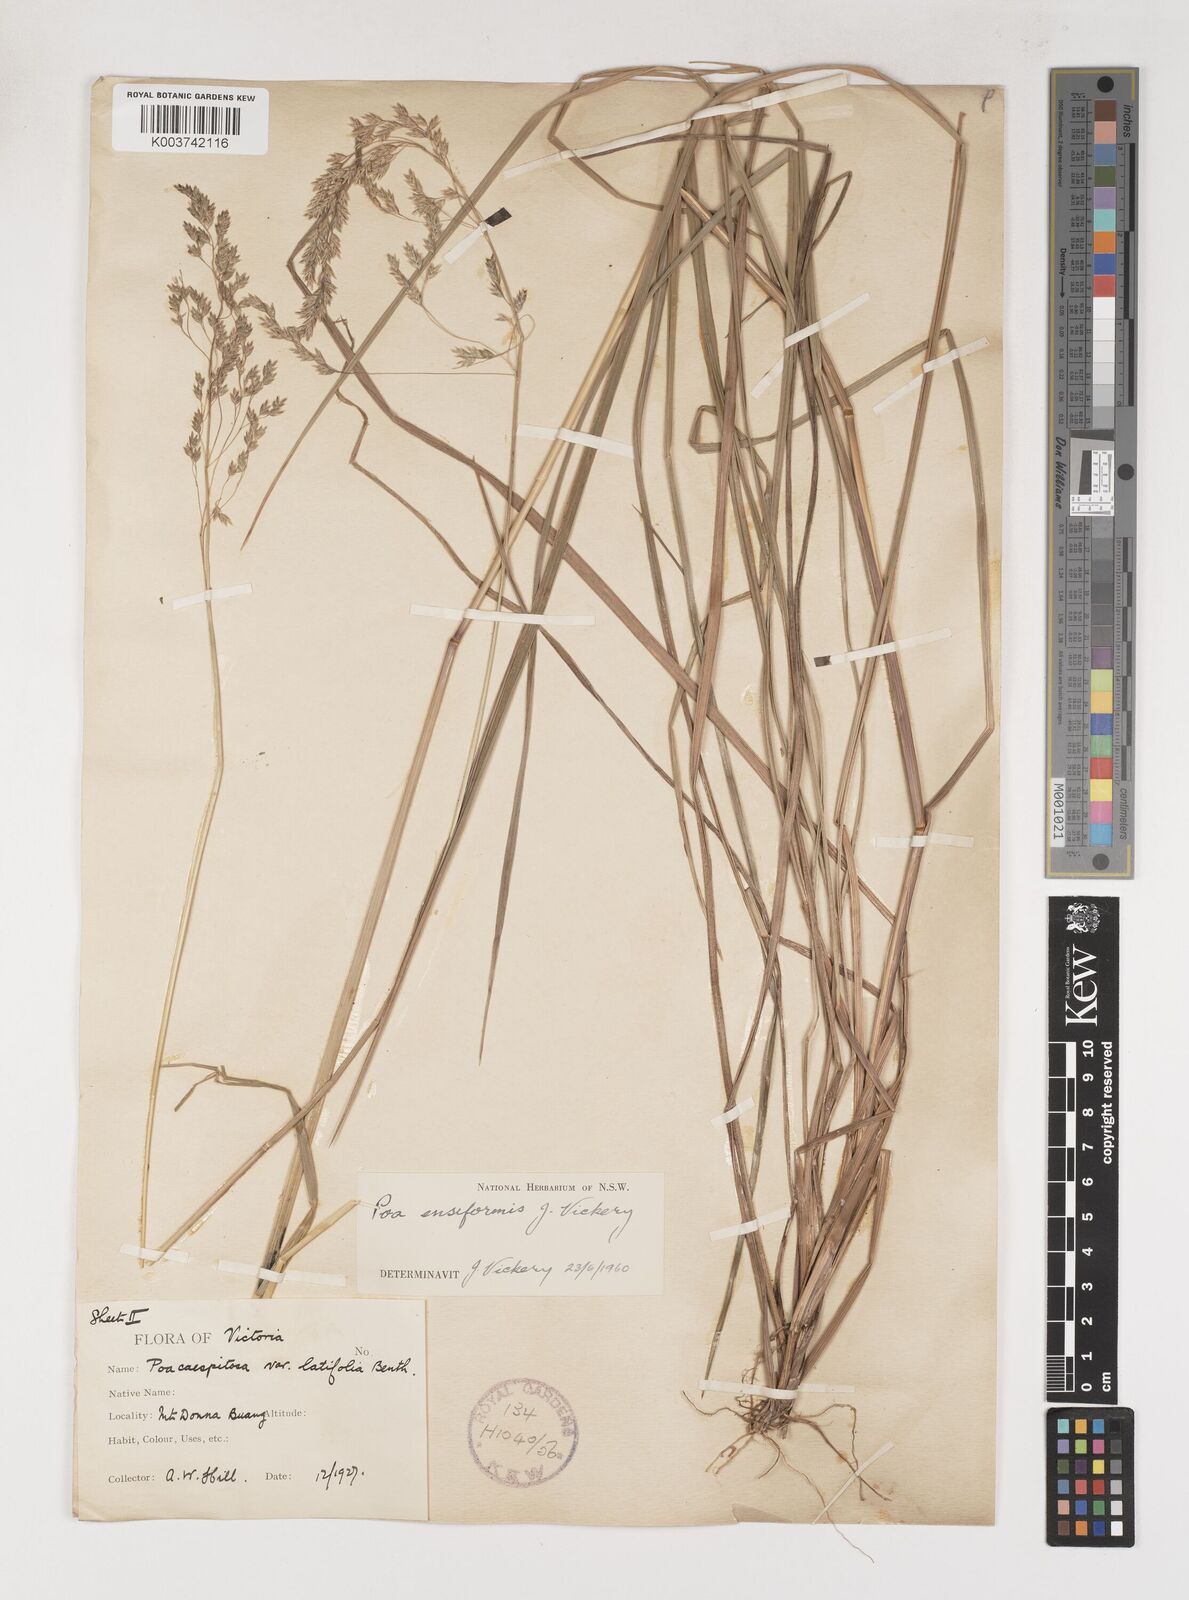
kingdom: Plantae
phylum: Tracheophyta
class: Liliopsida
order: Poales
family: Poaceae
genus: Poa
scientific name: Poa ensiformis
